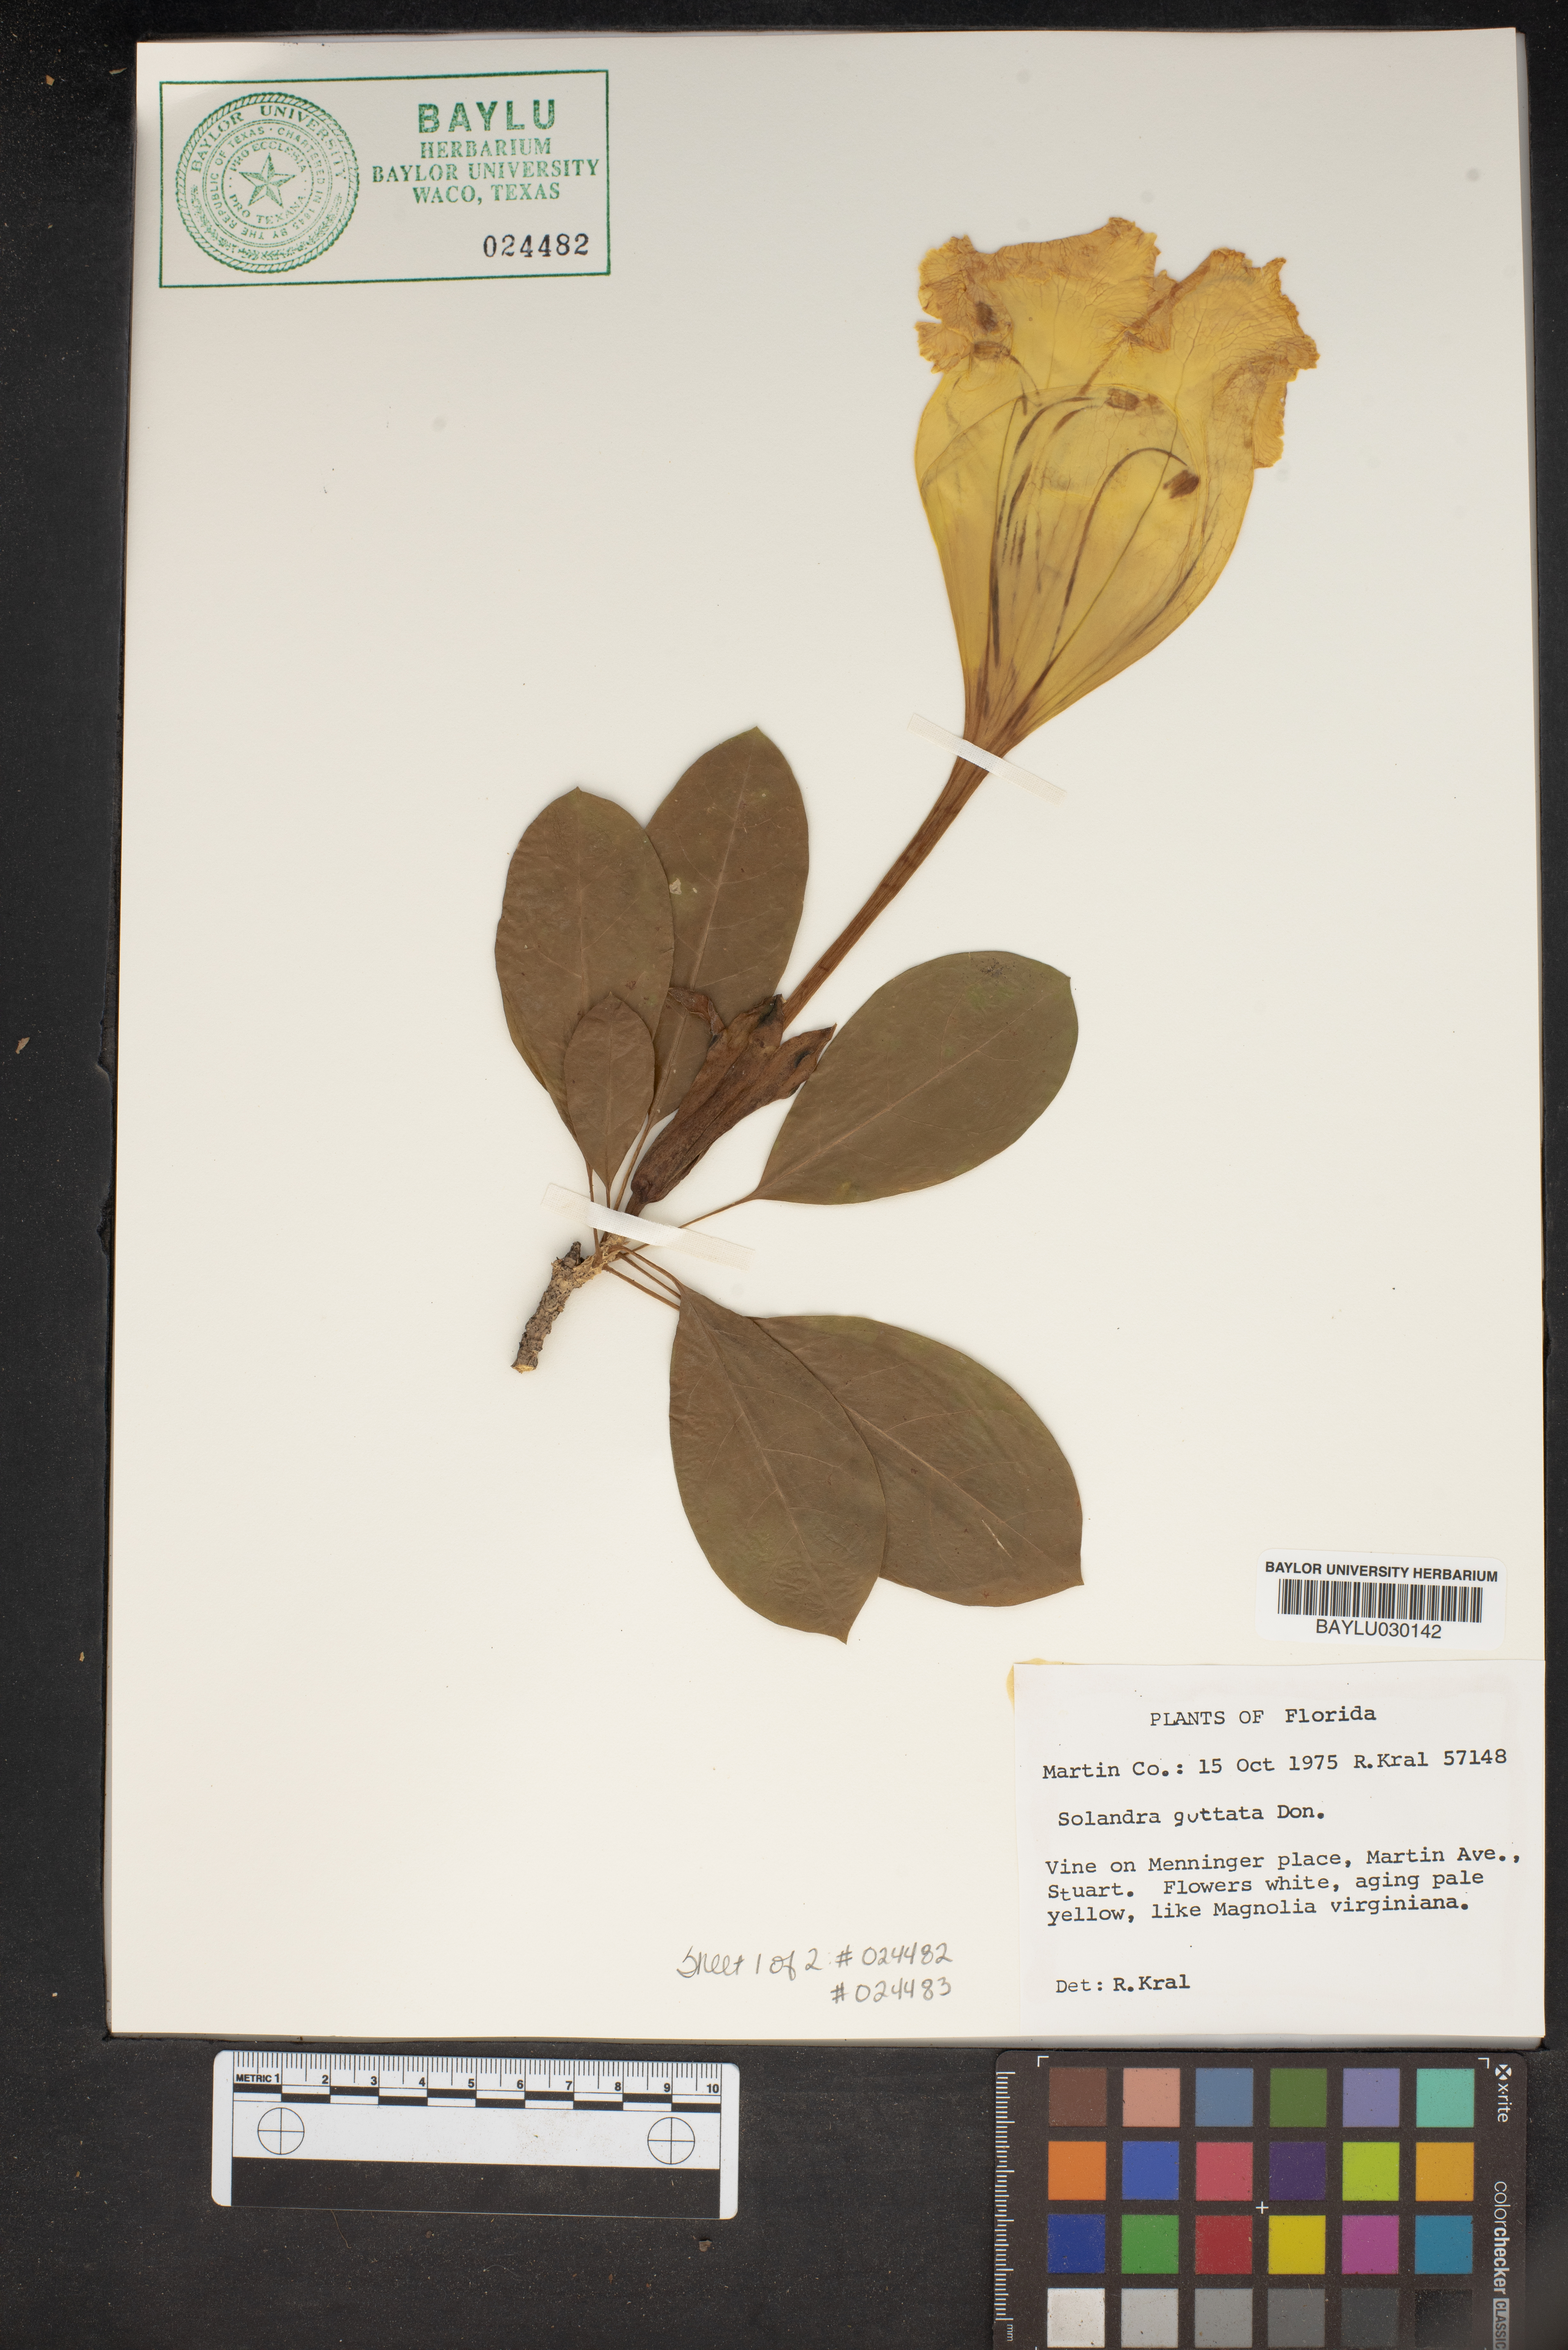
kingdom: Plantae
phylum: Tracheophyta
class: Magnoliopsida
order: Solanales
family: Solanaceae
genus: Solandra
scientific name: Solandra guttata
